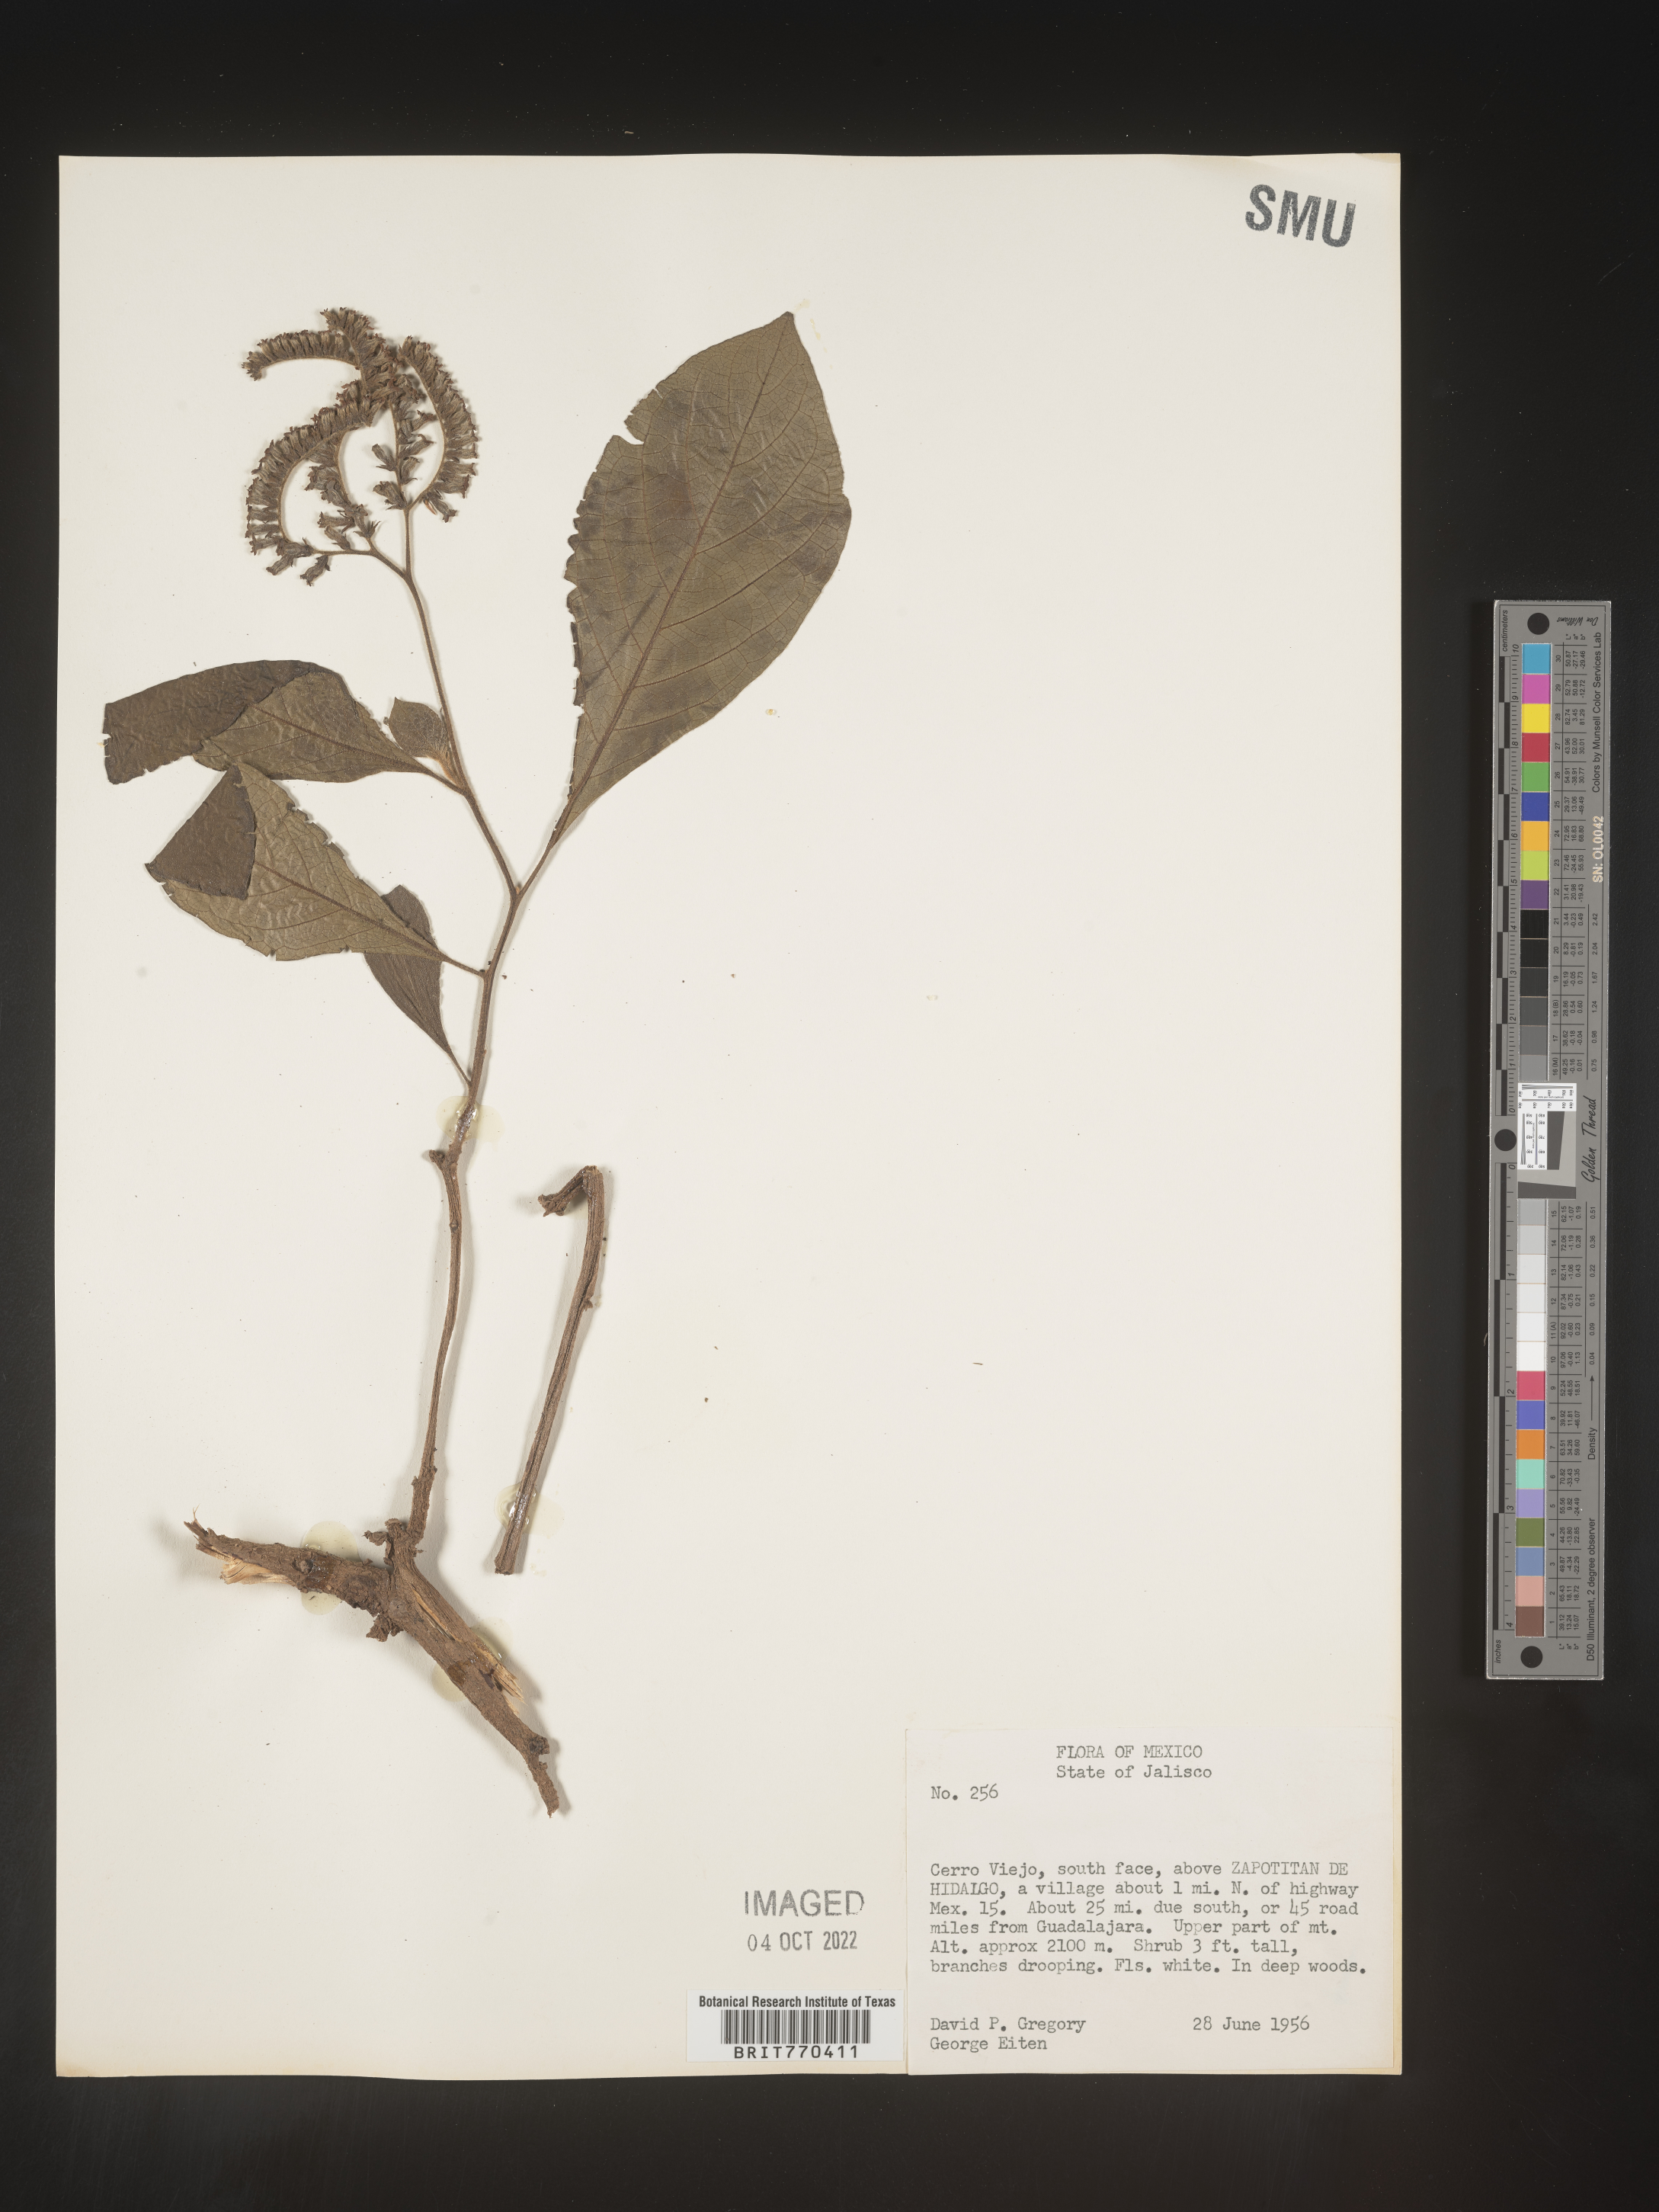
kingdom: Plantae
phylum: Tracheophyta
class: Magnoliopsida
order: Boraginales
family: Heliotropiaceae
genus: Tournefortia
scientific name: Tournefortia
